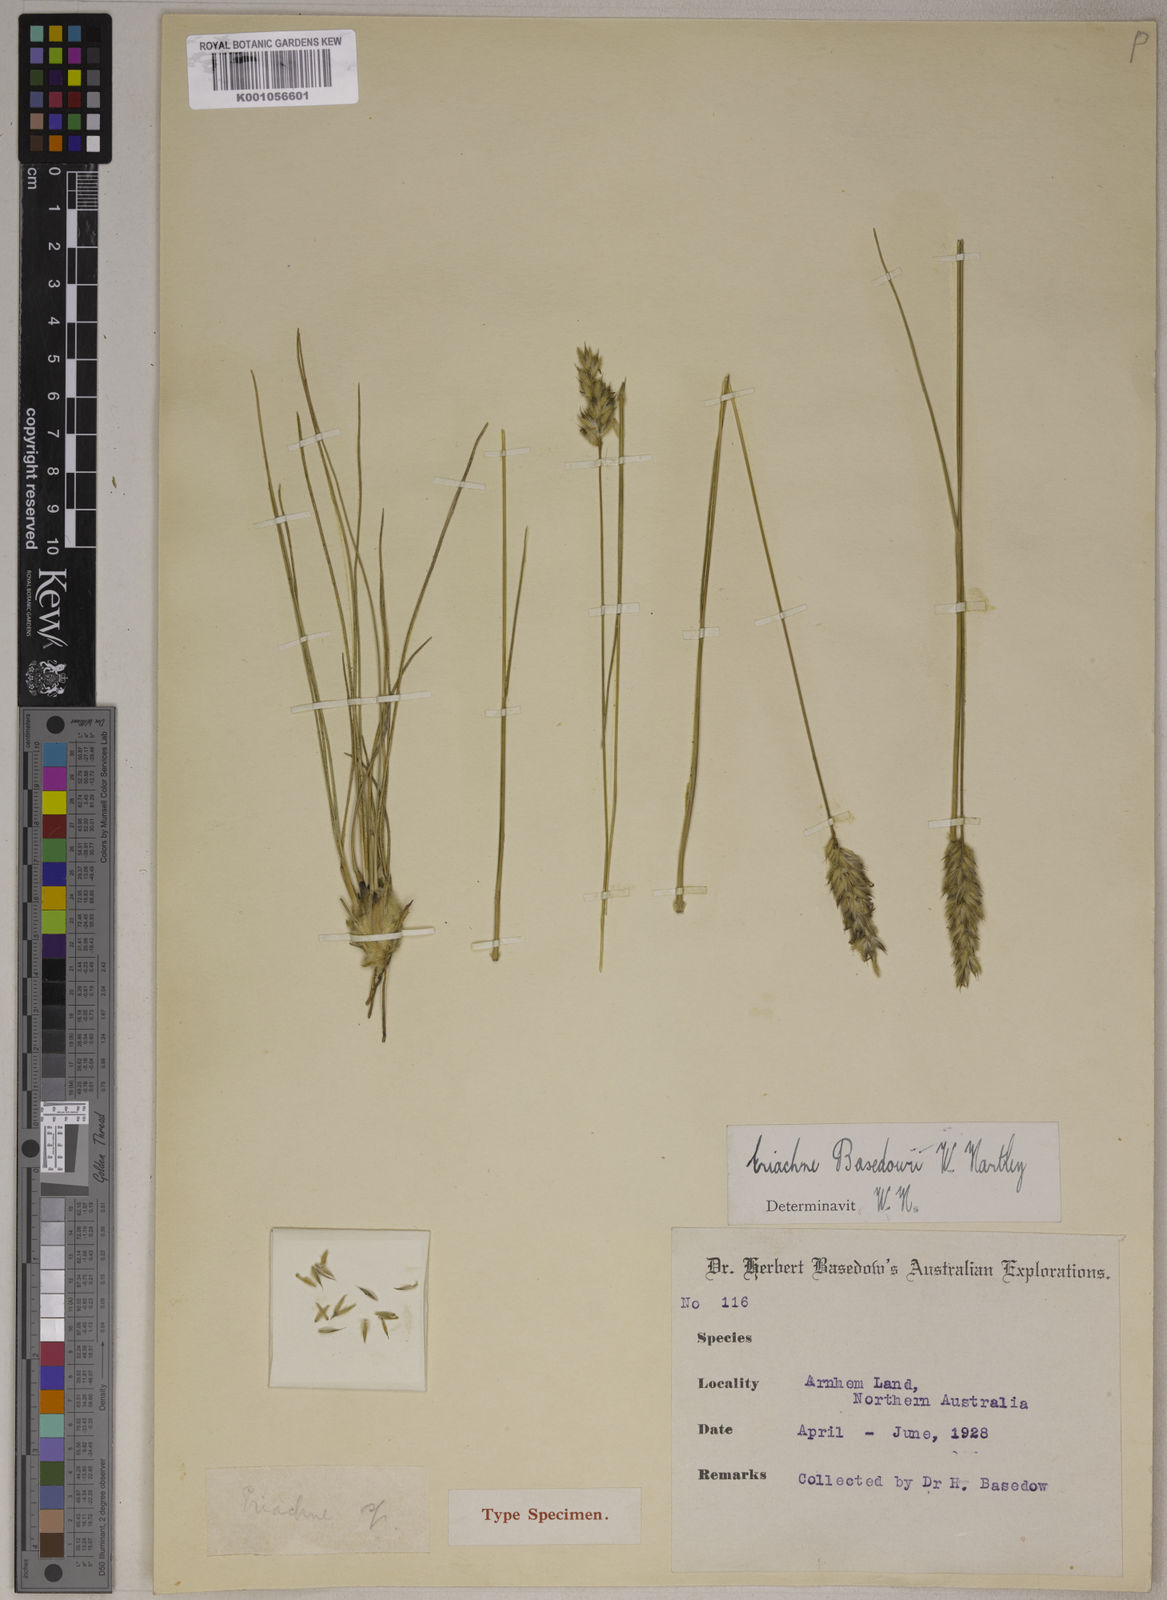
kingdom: Plantae
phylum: Tracheophyta
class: Liliopsida
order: Poales
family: Poaceae
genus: Eriachne
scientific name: Eriachne basedowii
